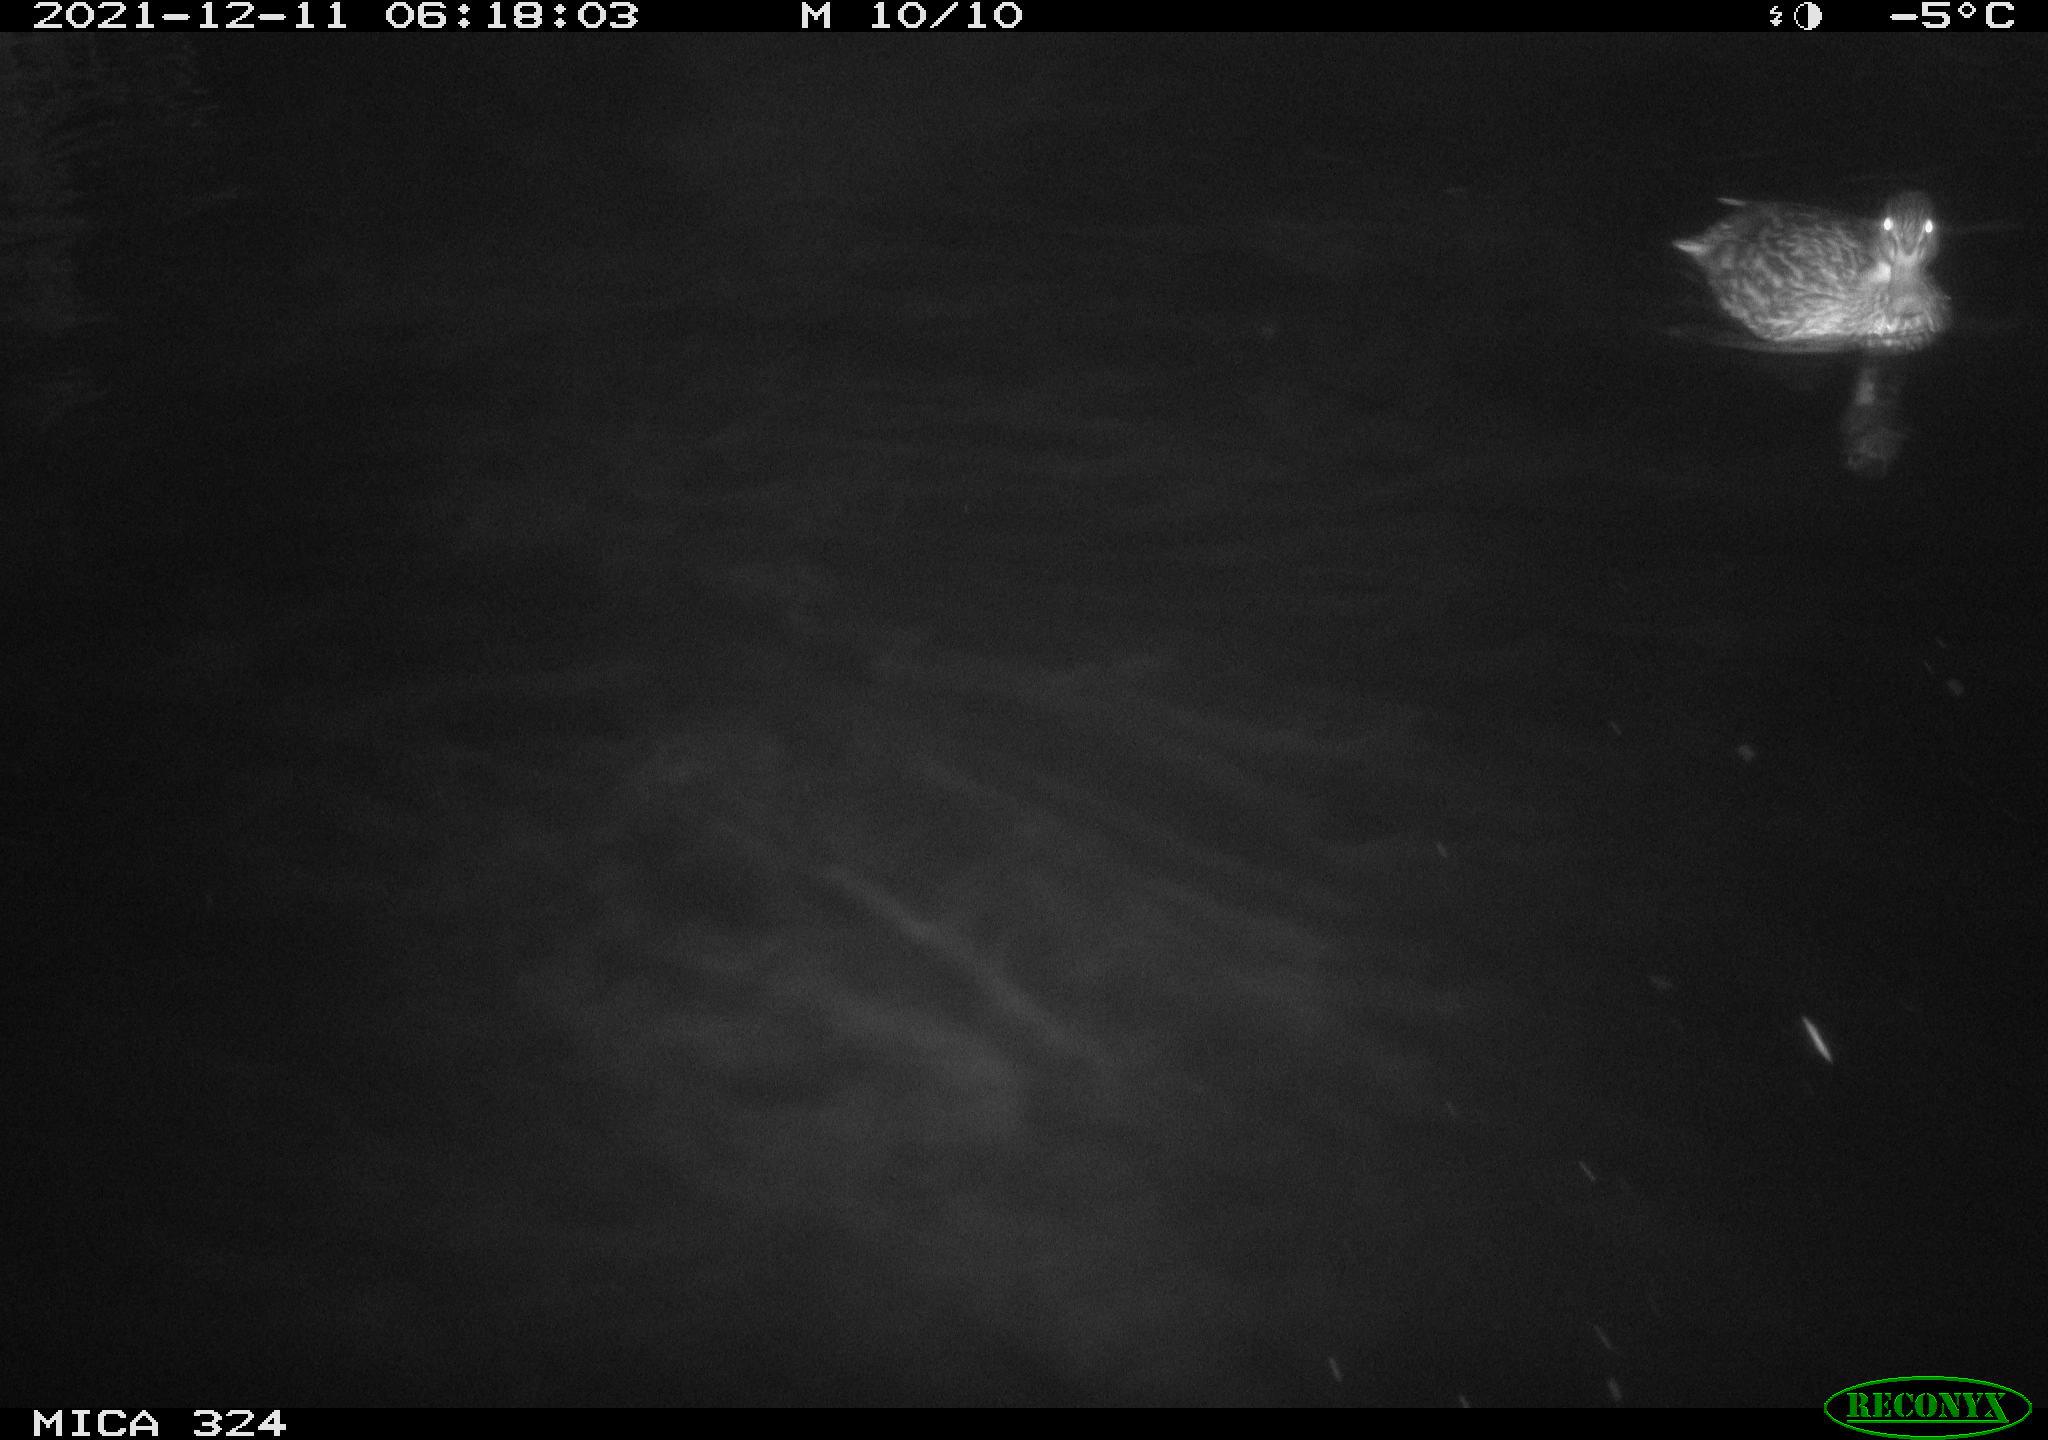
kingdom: Animalia
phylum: Chordata
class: Aves
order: Anseriformes
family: Anatidae
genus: Anas
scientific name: Anas platyrhynchos
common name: Mallard
